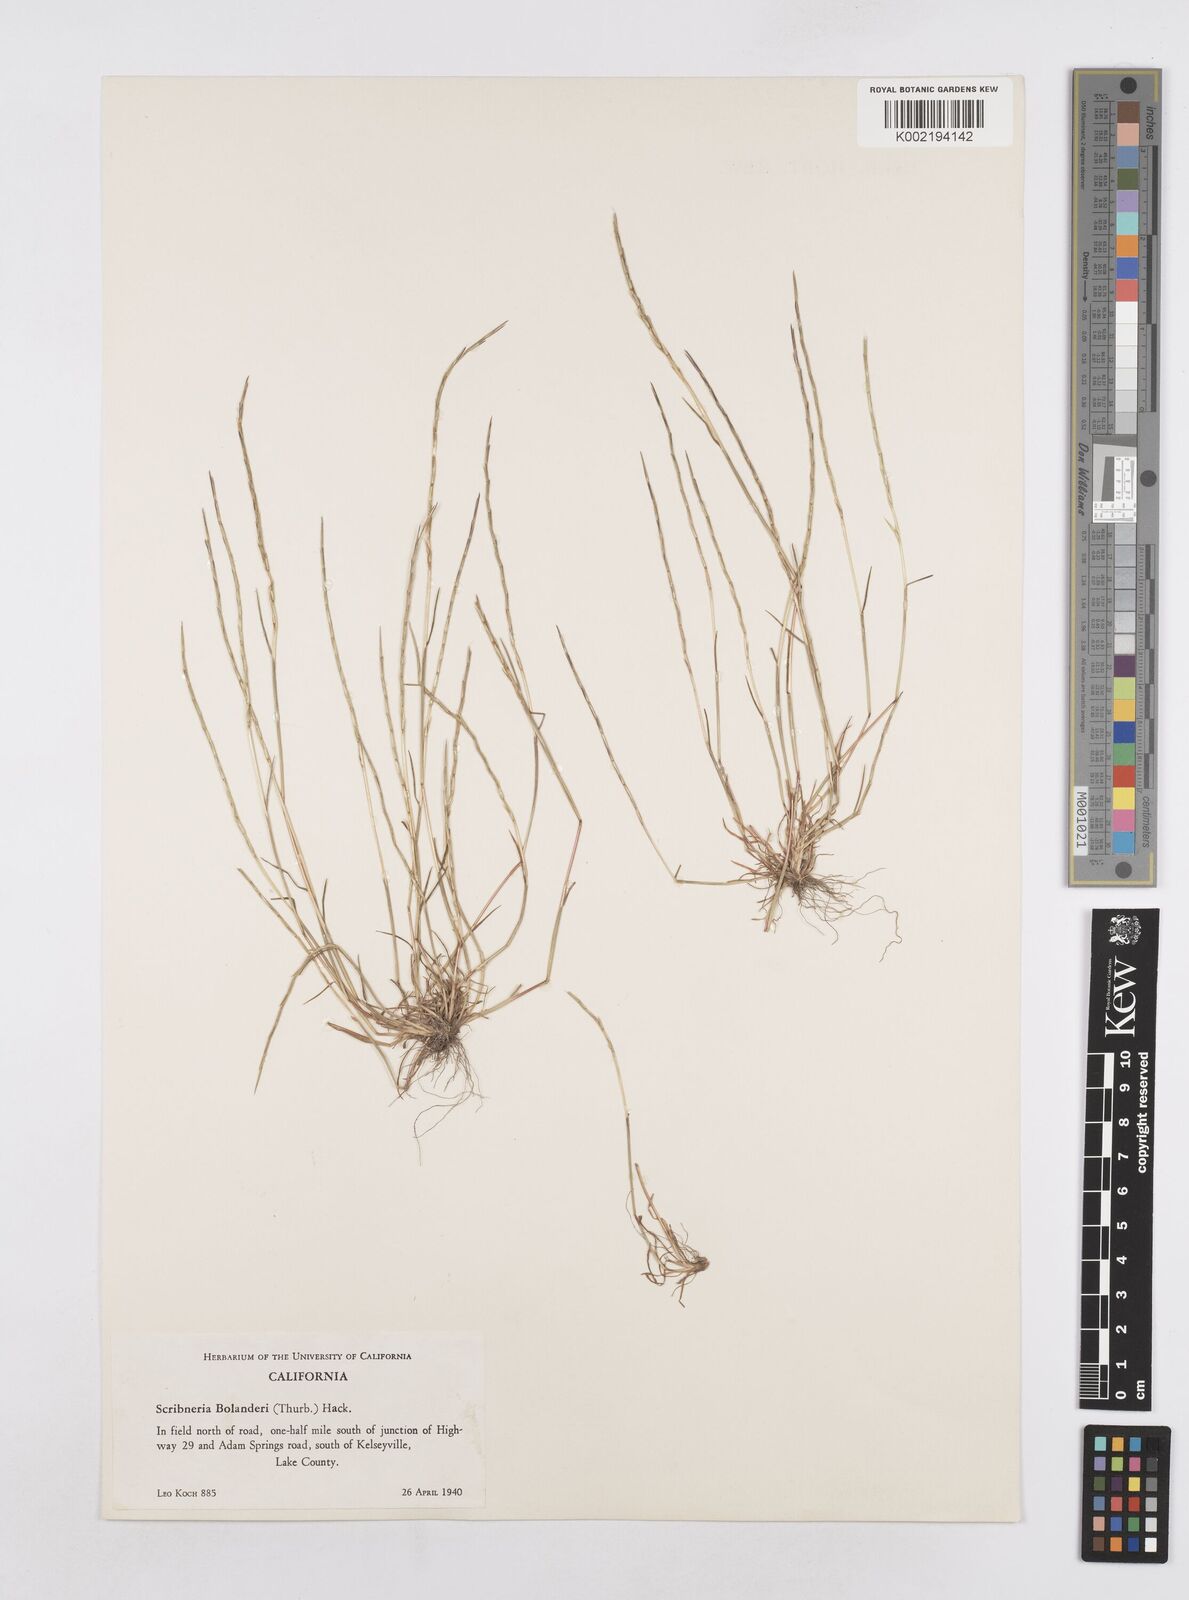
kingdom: Plantae
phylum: Tracheophyta
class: Liliopsida
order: Poales
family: Poaceae
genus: Deschampsia
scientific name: Deschampsia bolanderi
